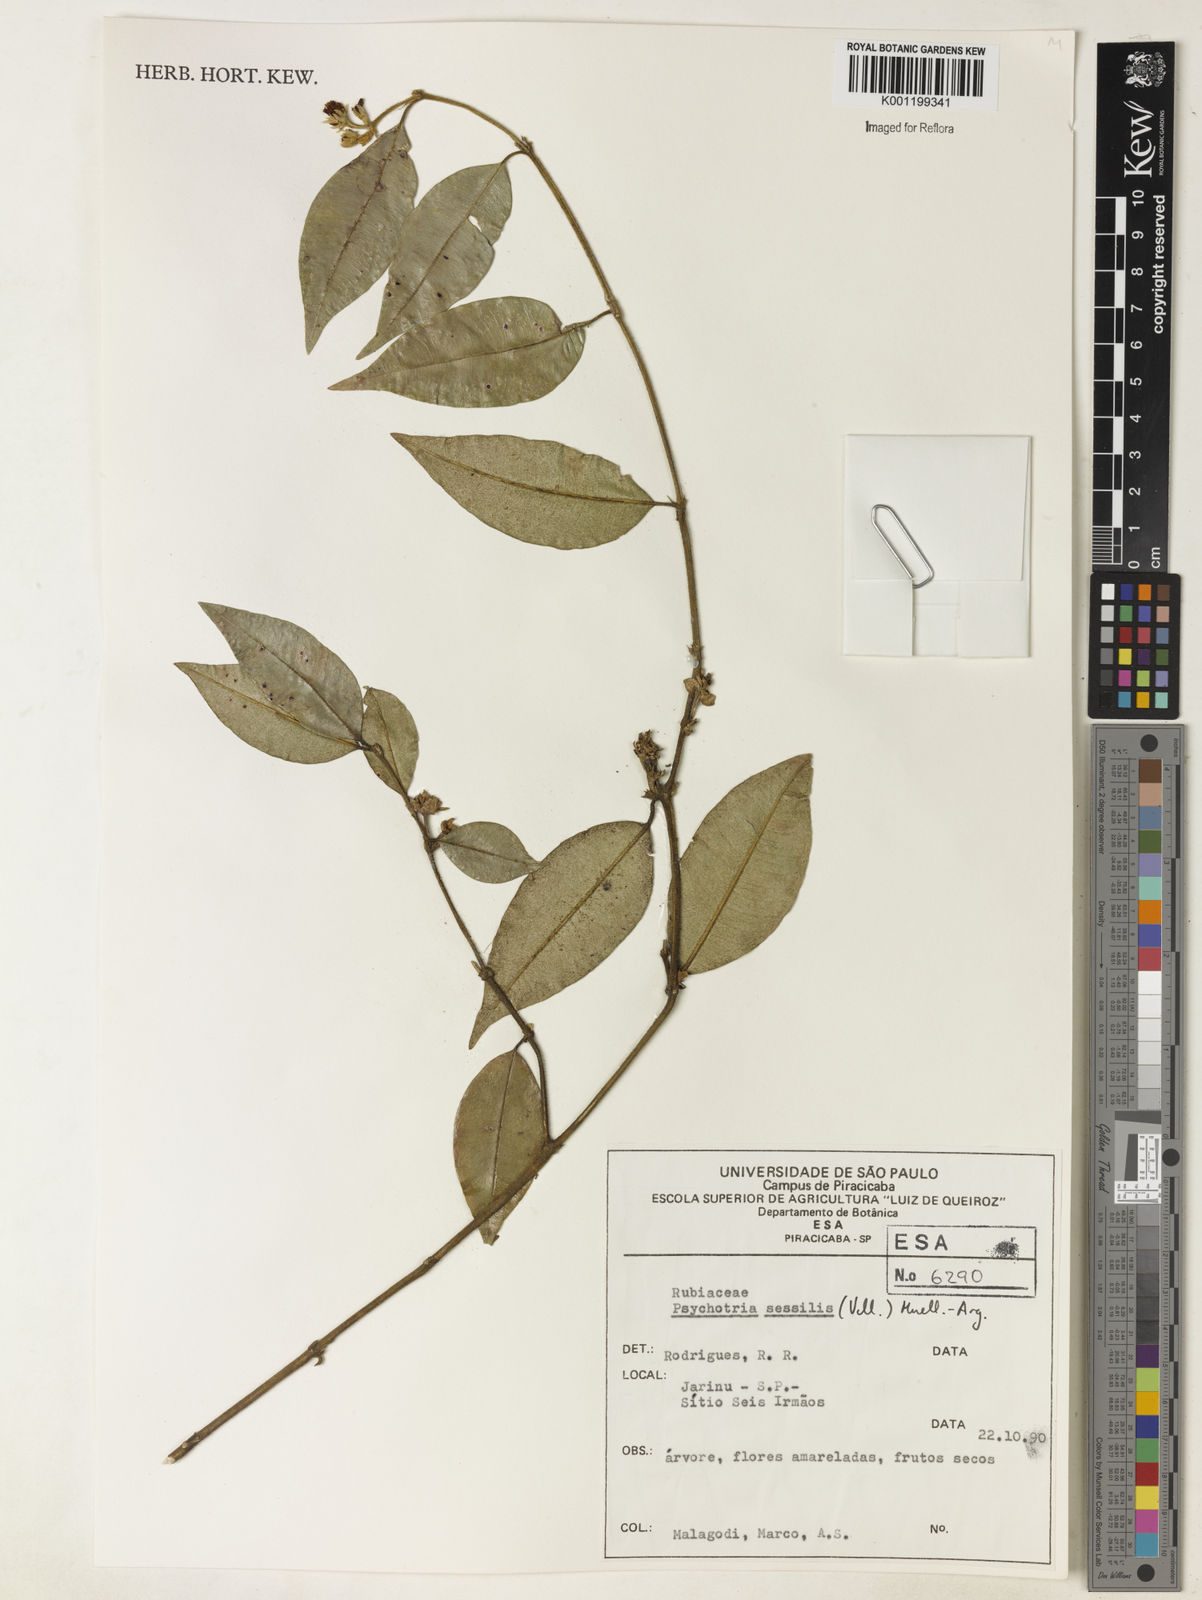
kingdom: Plantae
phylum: Tracheophyta
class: Magnoliopsida
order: Gentianales
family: Rubiaceae
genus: Rudgea
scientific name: Rudgea sessilis
